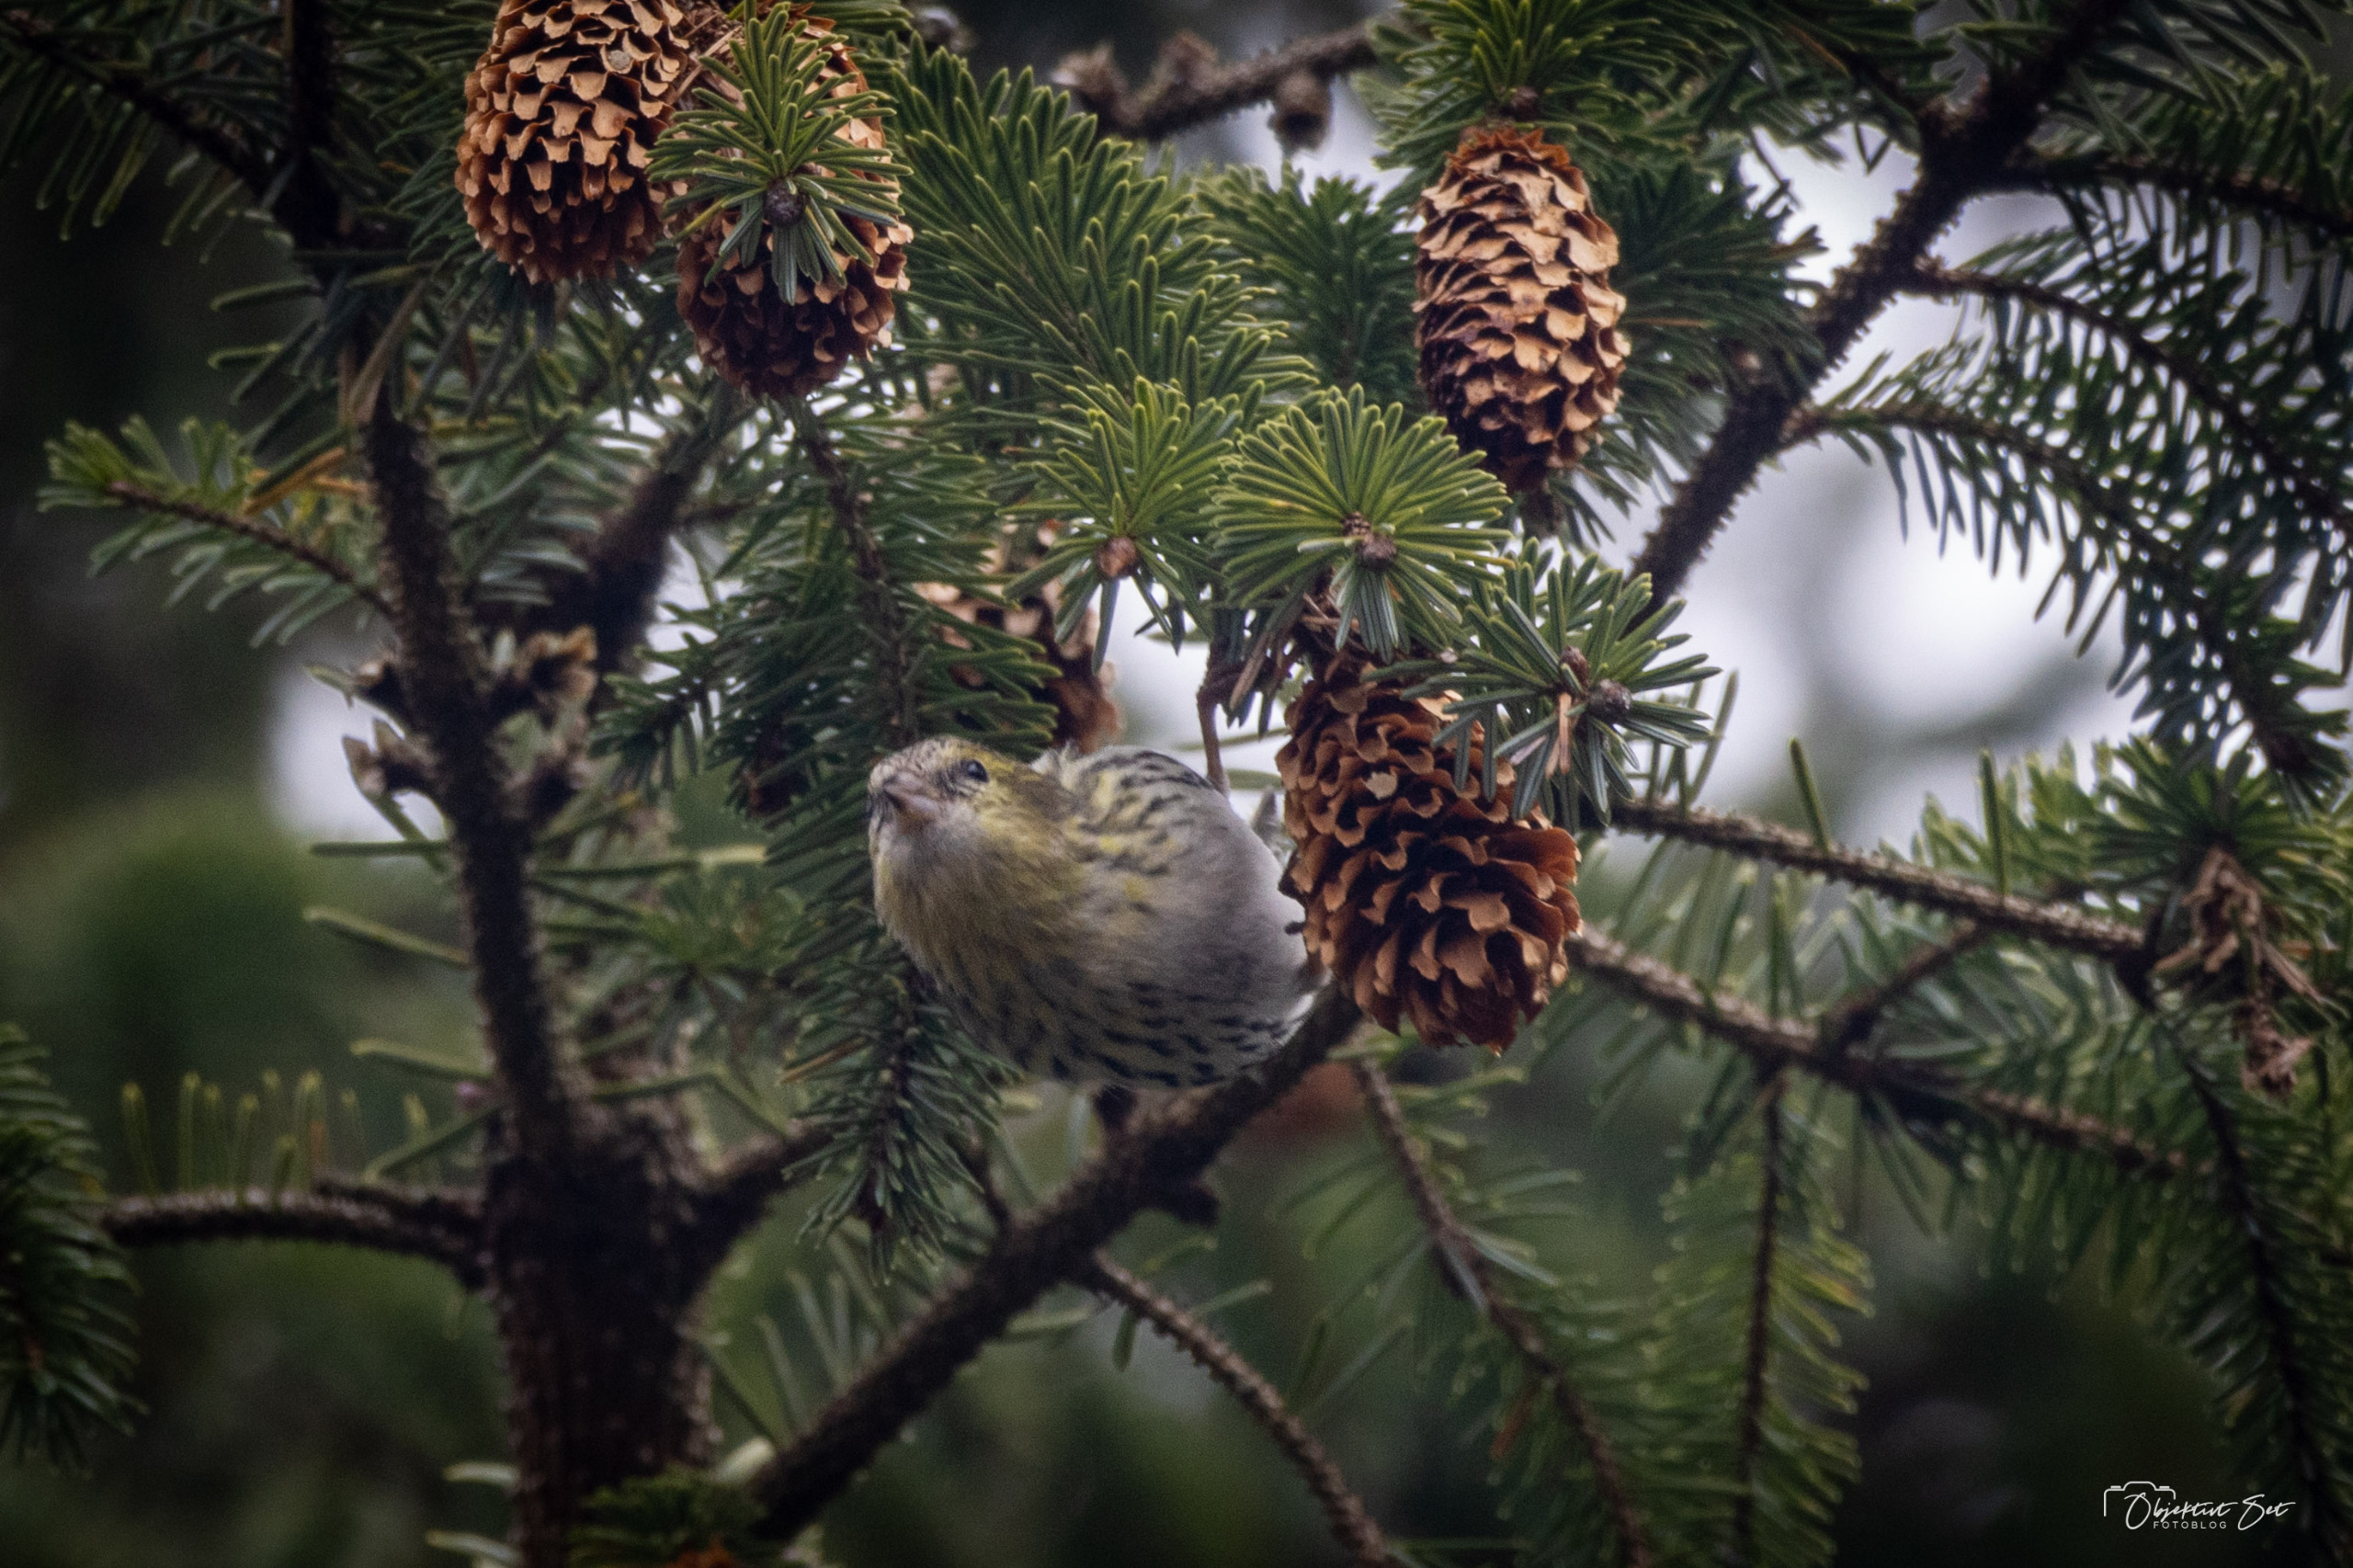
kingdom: Animalia
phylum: Chordata
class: Aves
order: Passeriformes
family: Fringillidae
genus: Spinus
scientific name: Spinus spinus
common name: Grønsisken
